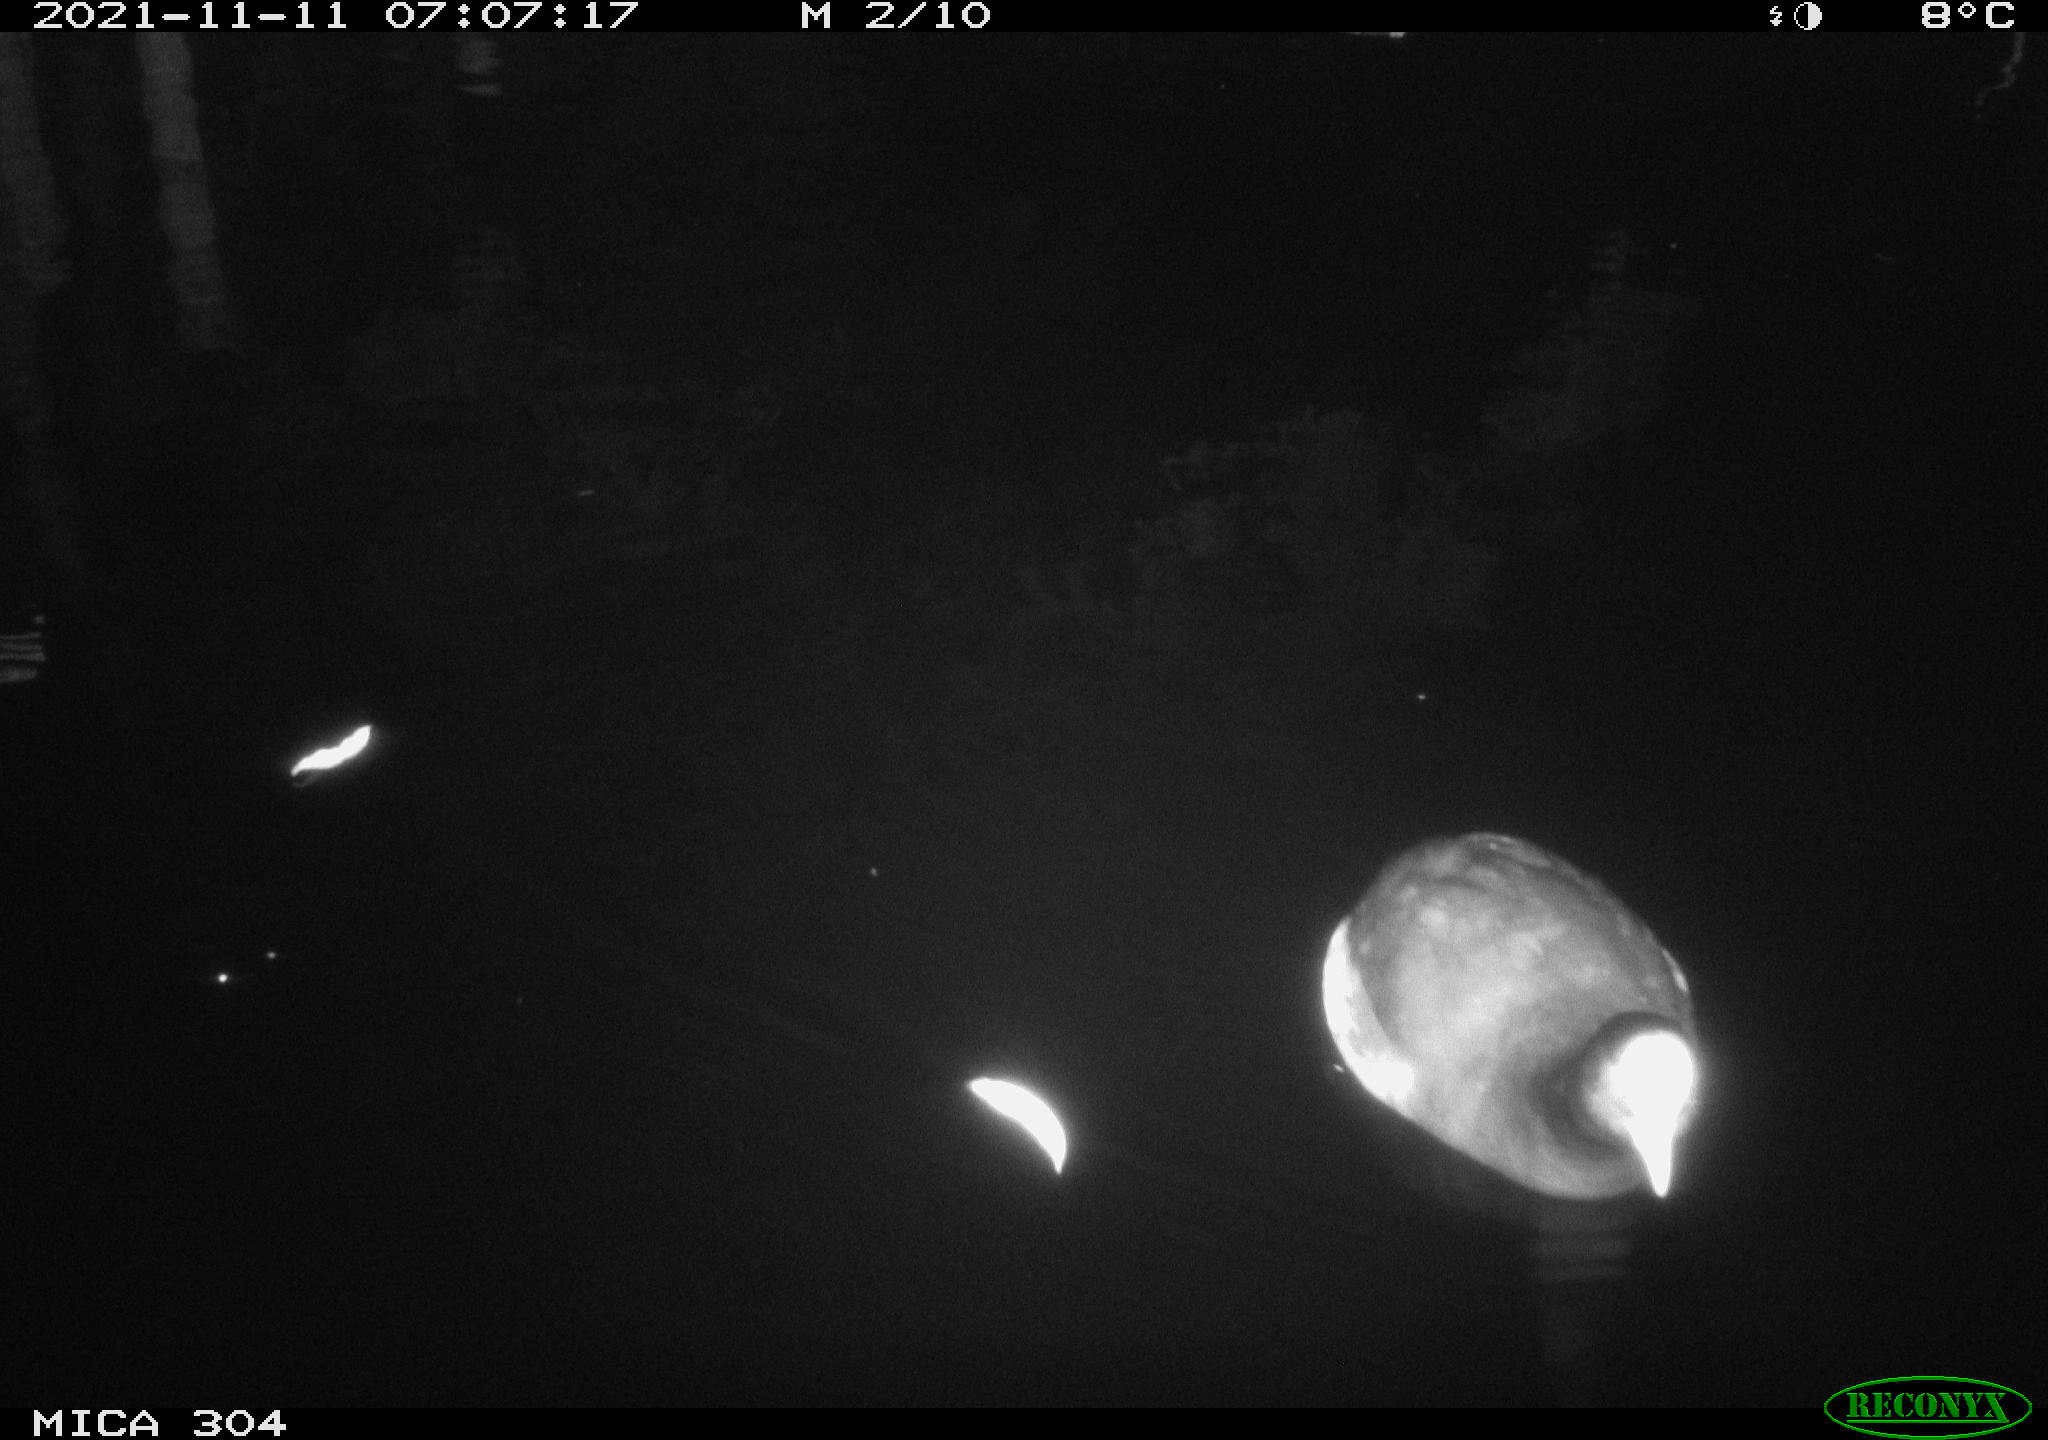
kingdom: Animalia
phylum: Chordata
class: Aves
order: Gruiformes
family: Rallidae
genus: Fulica
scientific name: Fulica atra
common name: Eurasian coot
